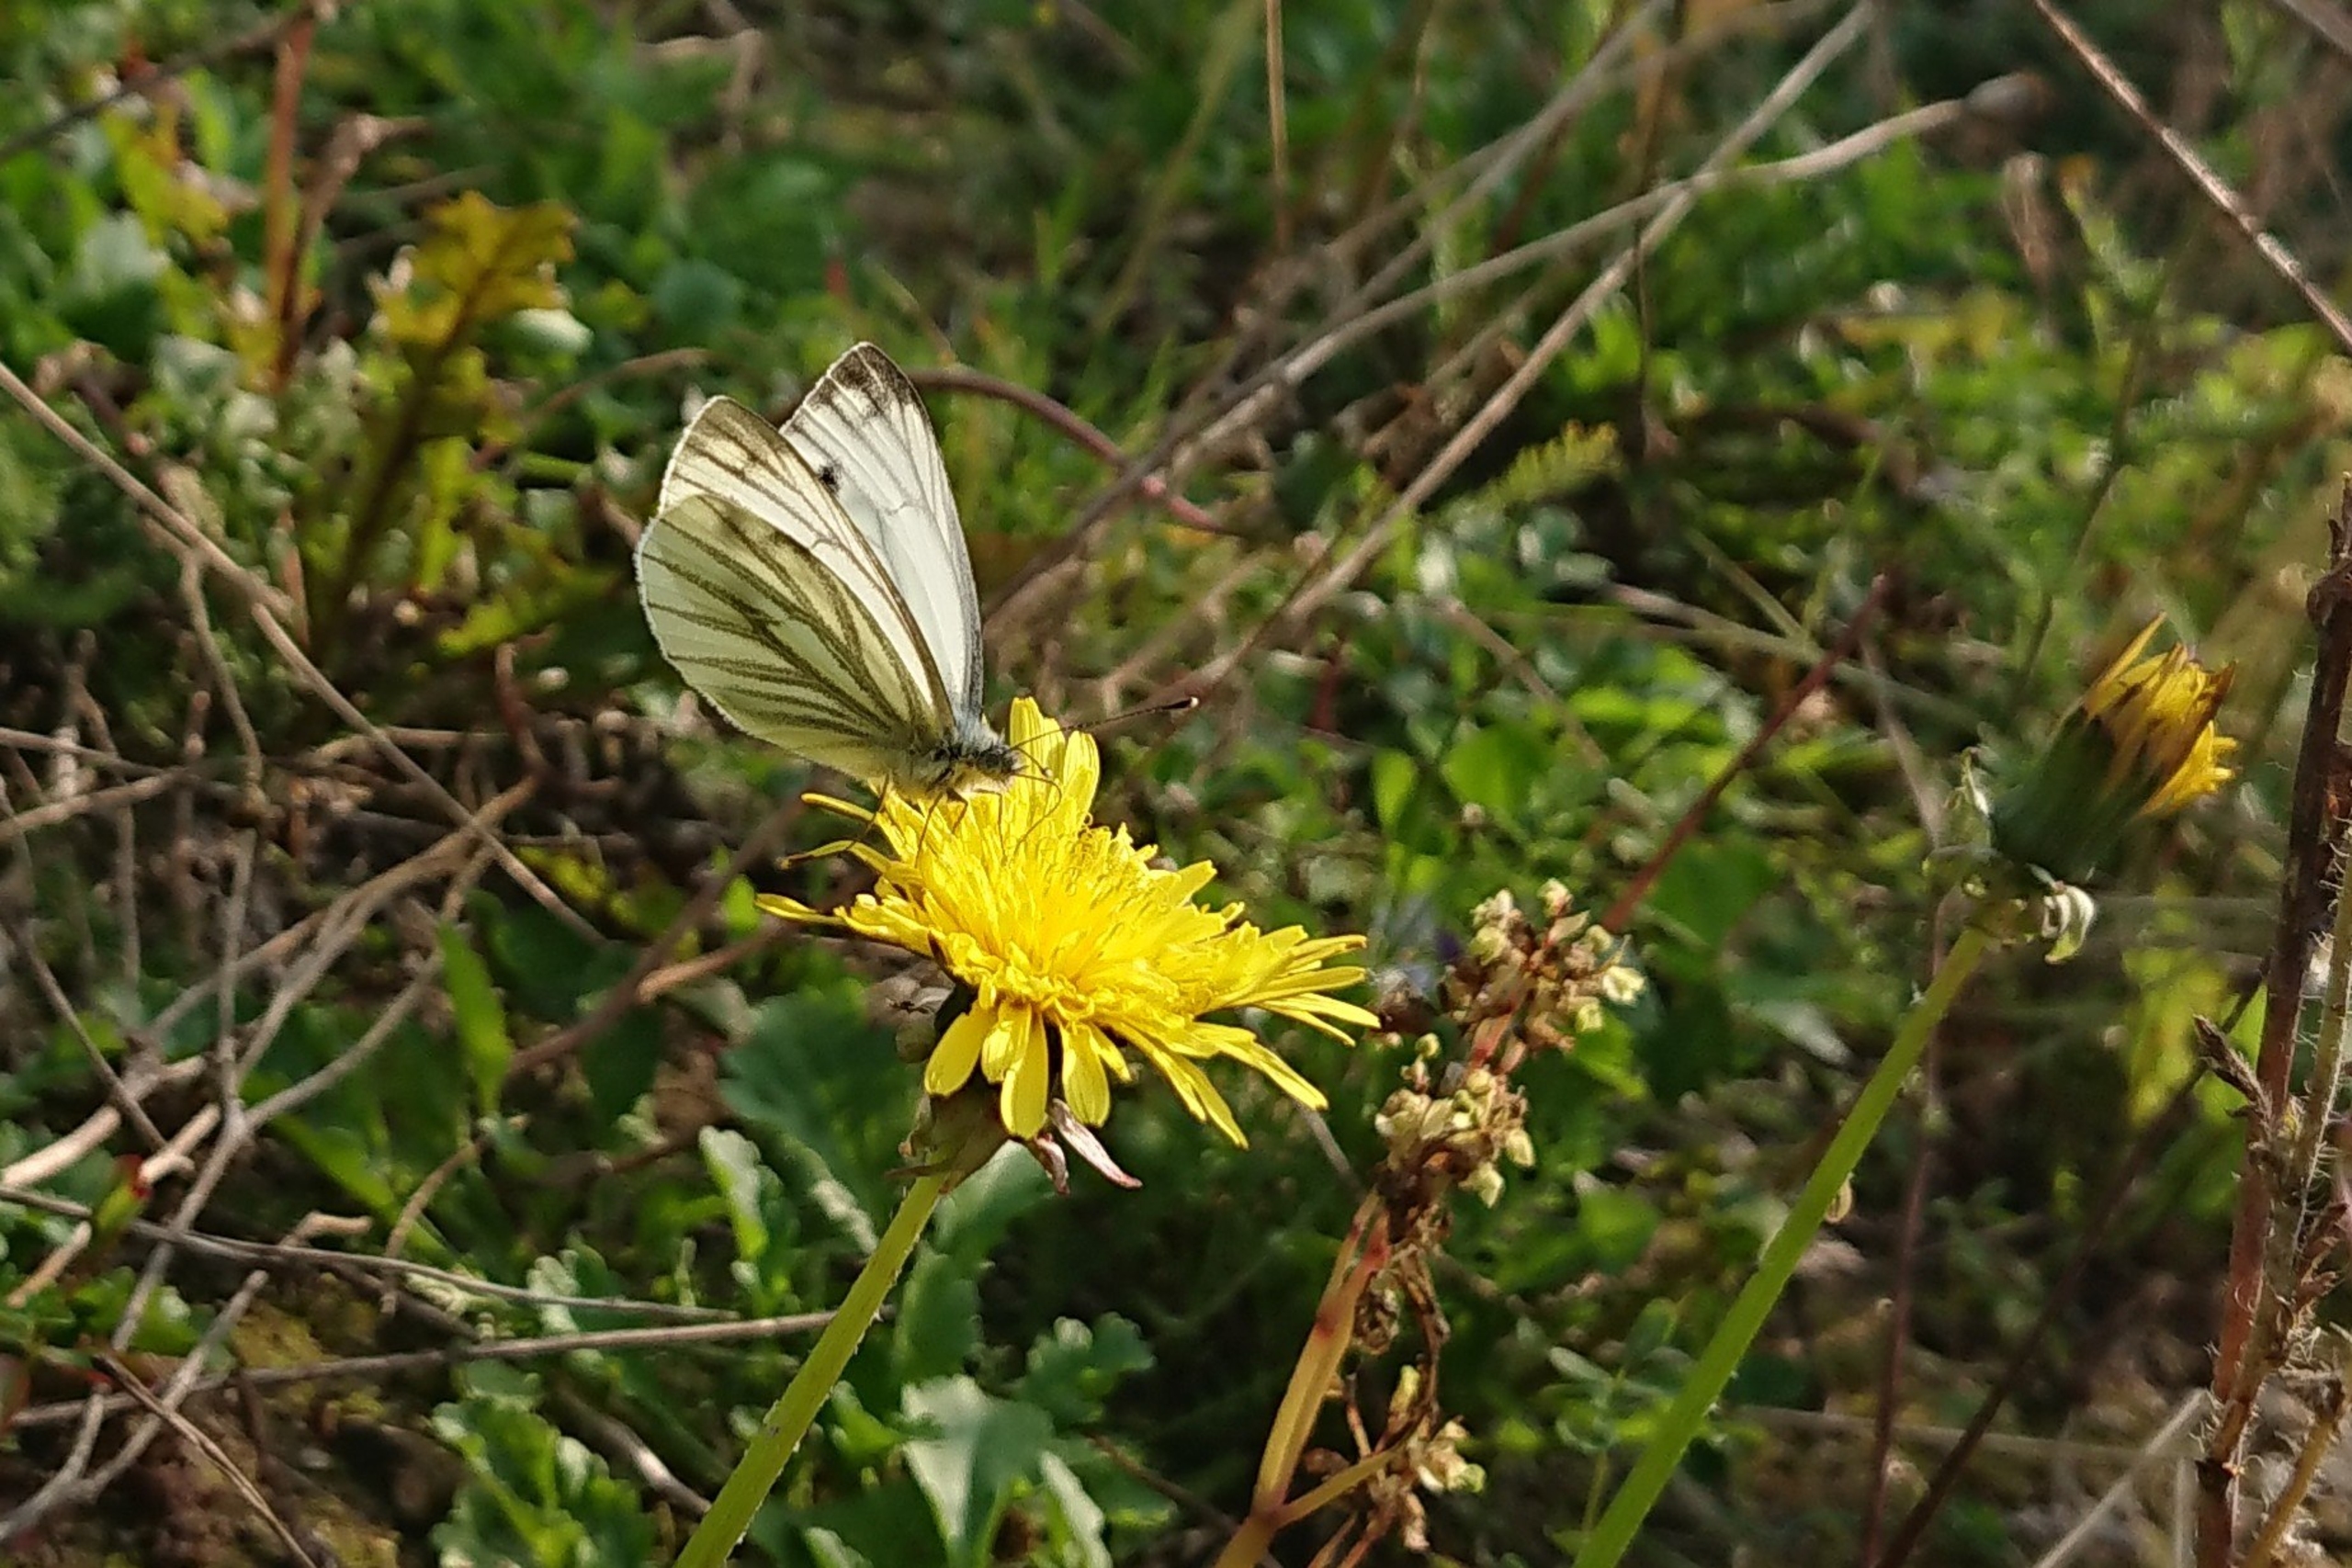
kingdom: Animalia
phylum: Arthropoda
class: Insecta
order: Lepidoptera
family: Pieridae
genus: Pieris
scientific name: Pieris napi
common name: Grønåret kålsommerfugl
